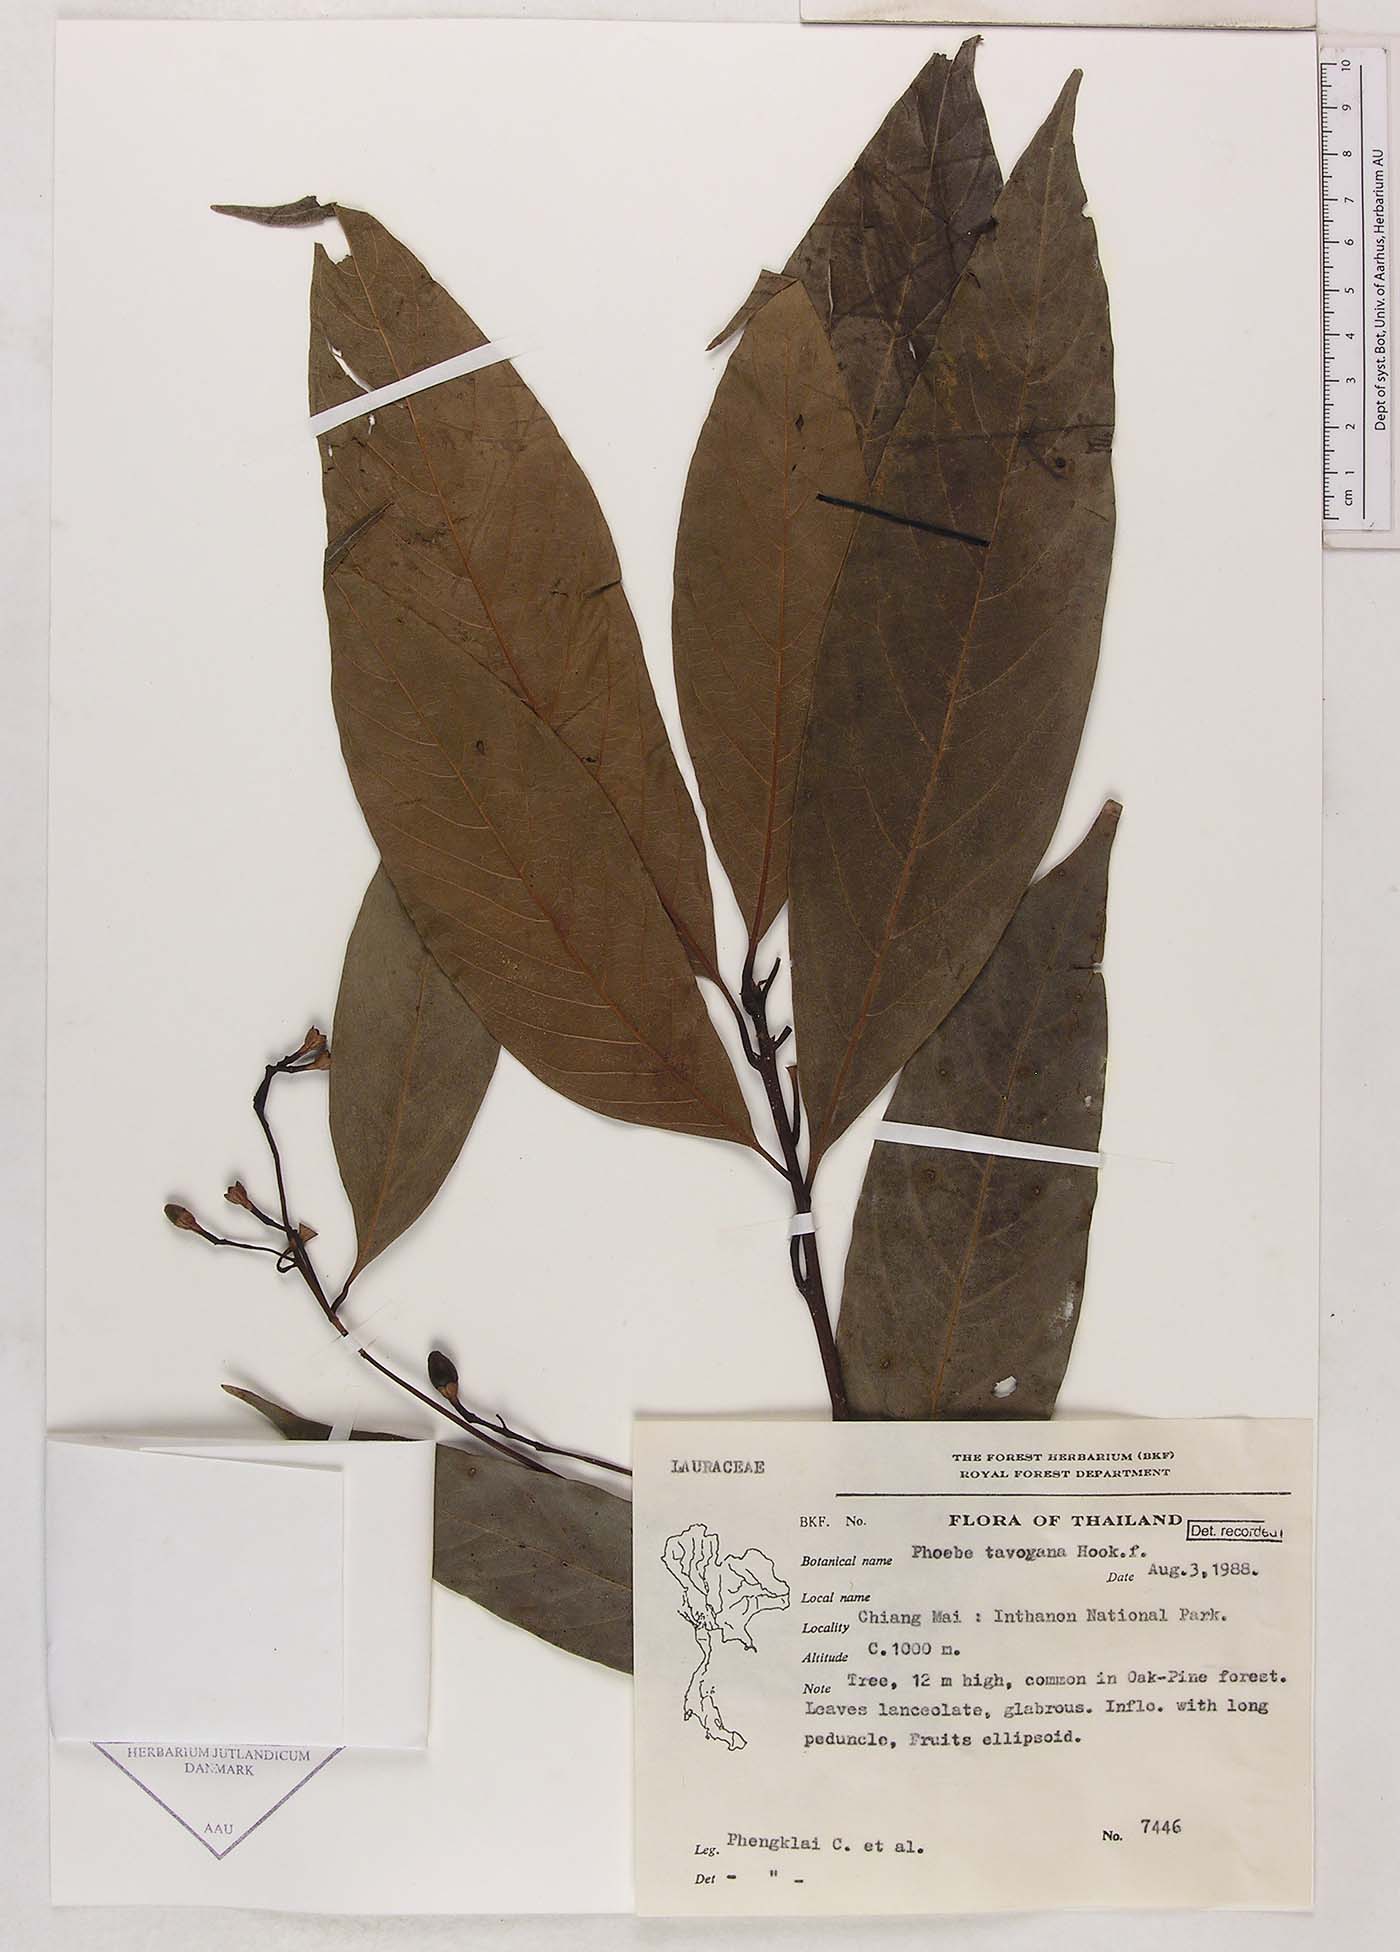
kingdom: Plantae
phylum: Tracheophyta
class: Magnoliopsida
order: Laurales
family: Lauraceae
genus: Phoebe
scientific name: Phoebe tavoyana
